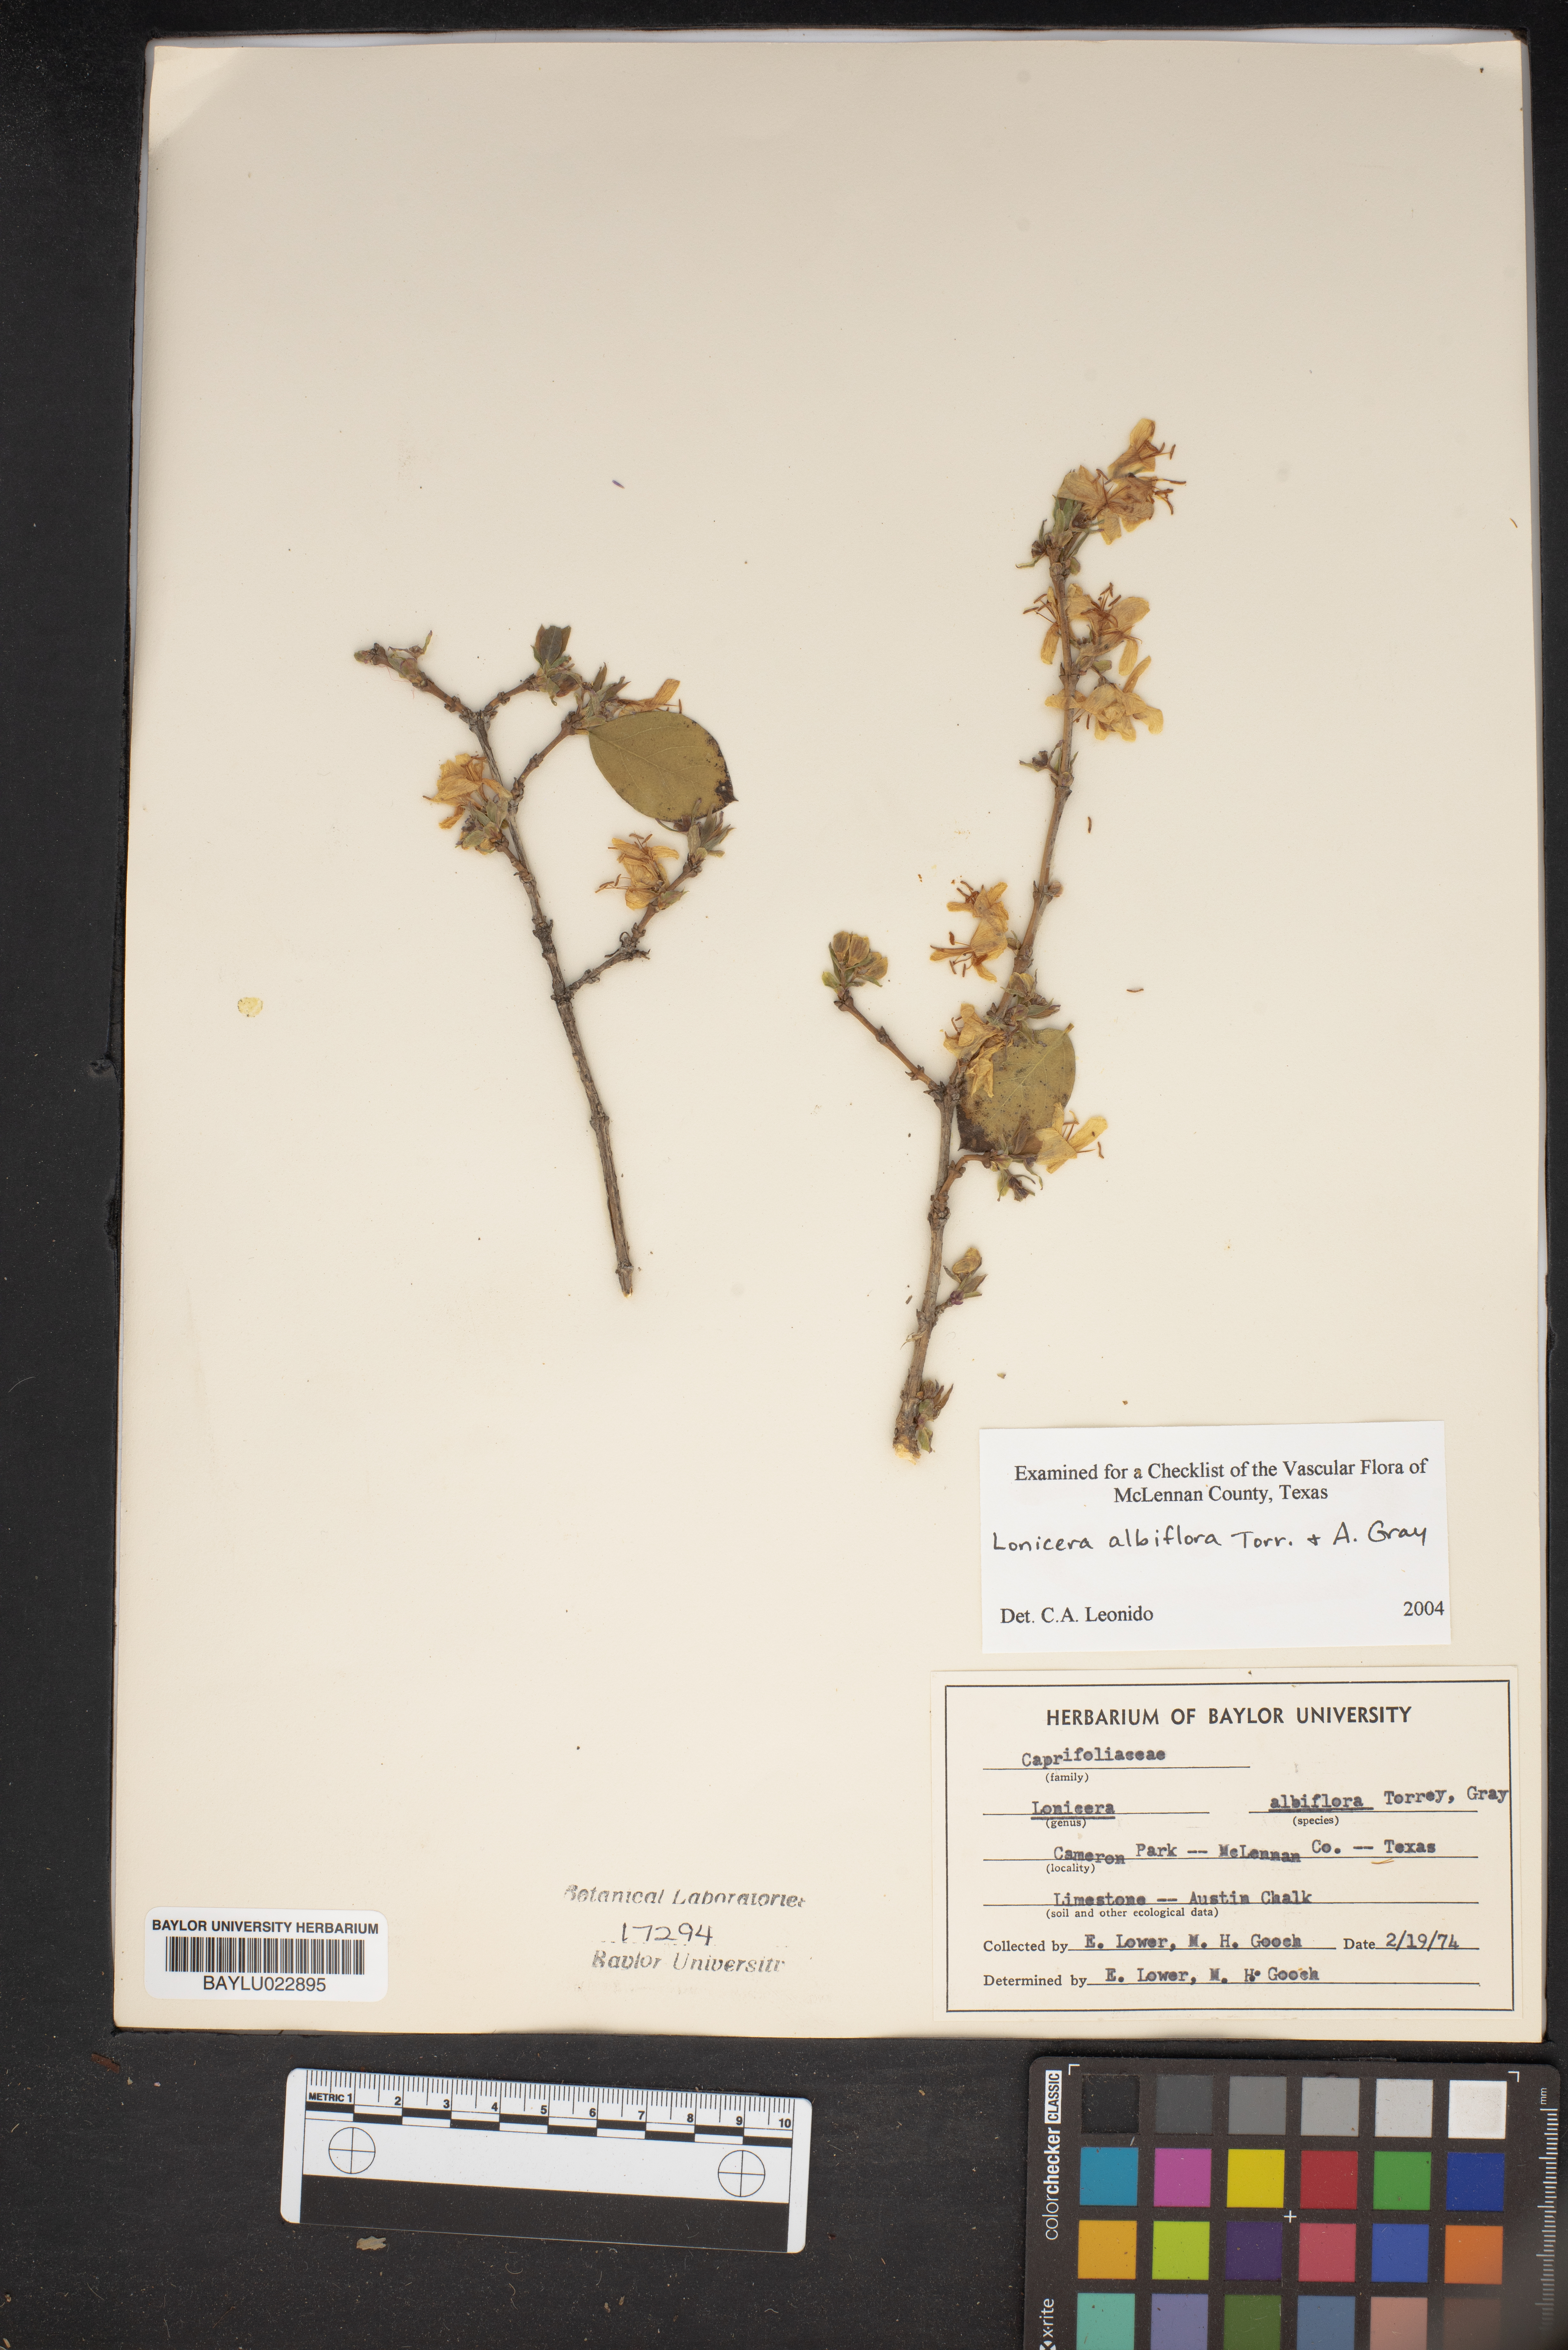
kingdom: Plantae
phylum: Tracheophyta
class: Magnoliopsida
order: Dipsacales
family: Caprifoliaceae
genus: Lonicera
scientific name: Lonicera albiflora
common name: White honeysuckle
